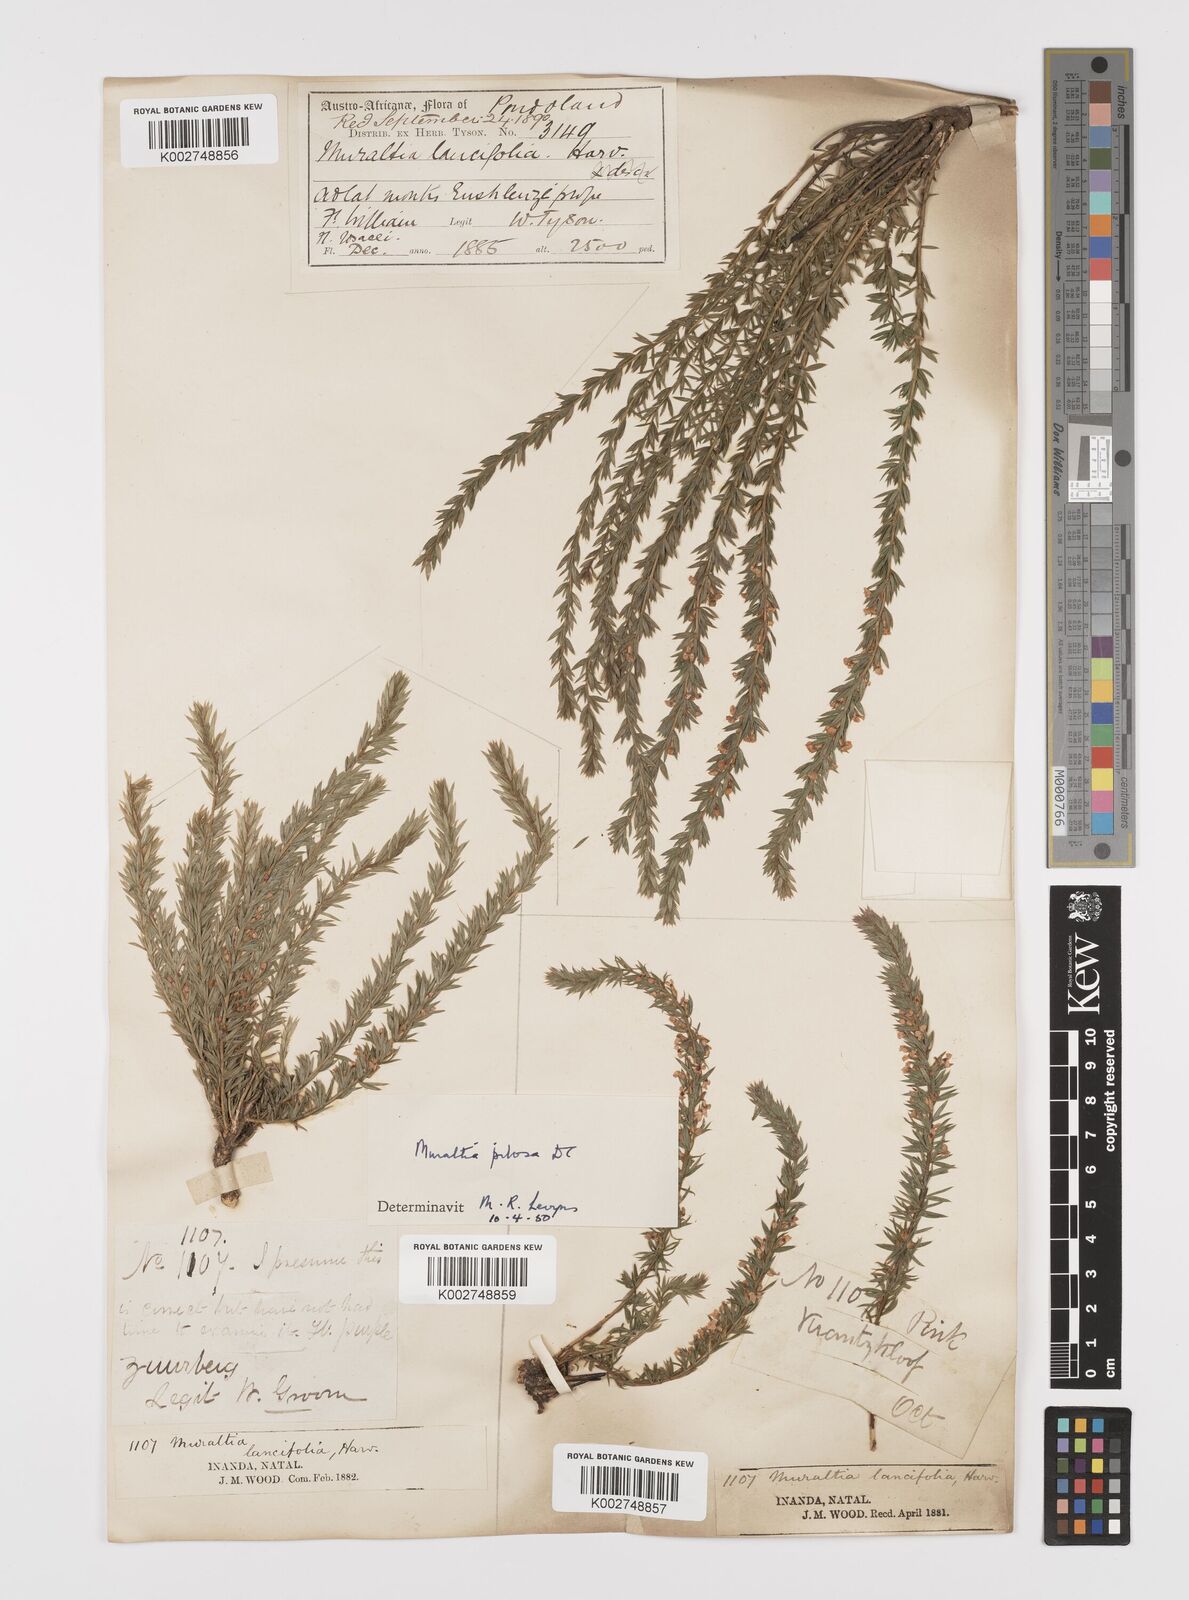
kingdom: Plantae
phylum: Tracheophyta
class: Magnoliopsida
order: Fabales
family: Polygalaceae
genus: Muraltia
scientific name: Muraltia lancifolia
